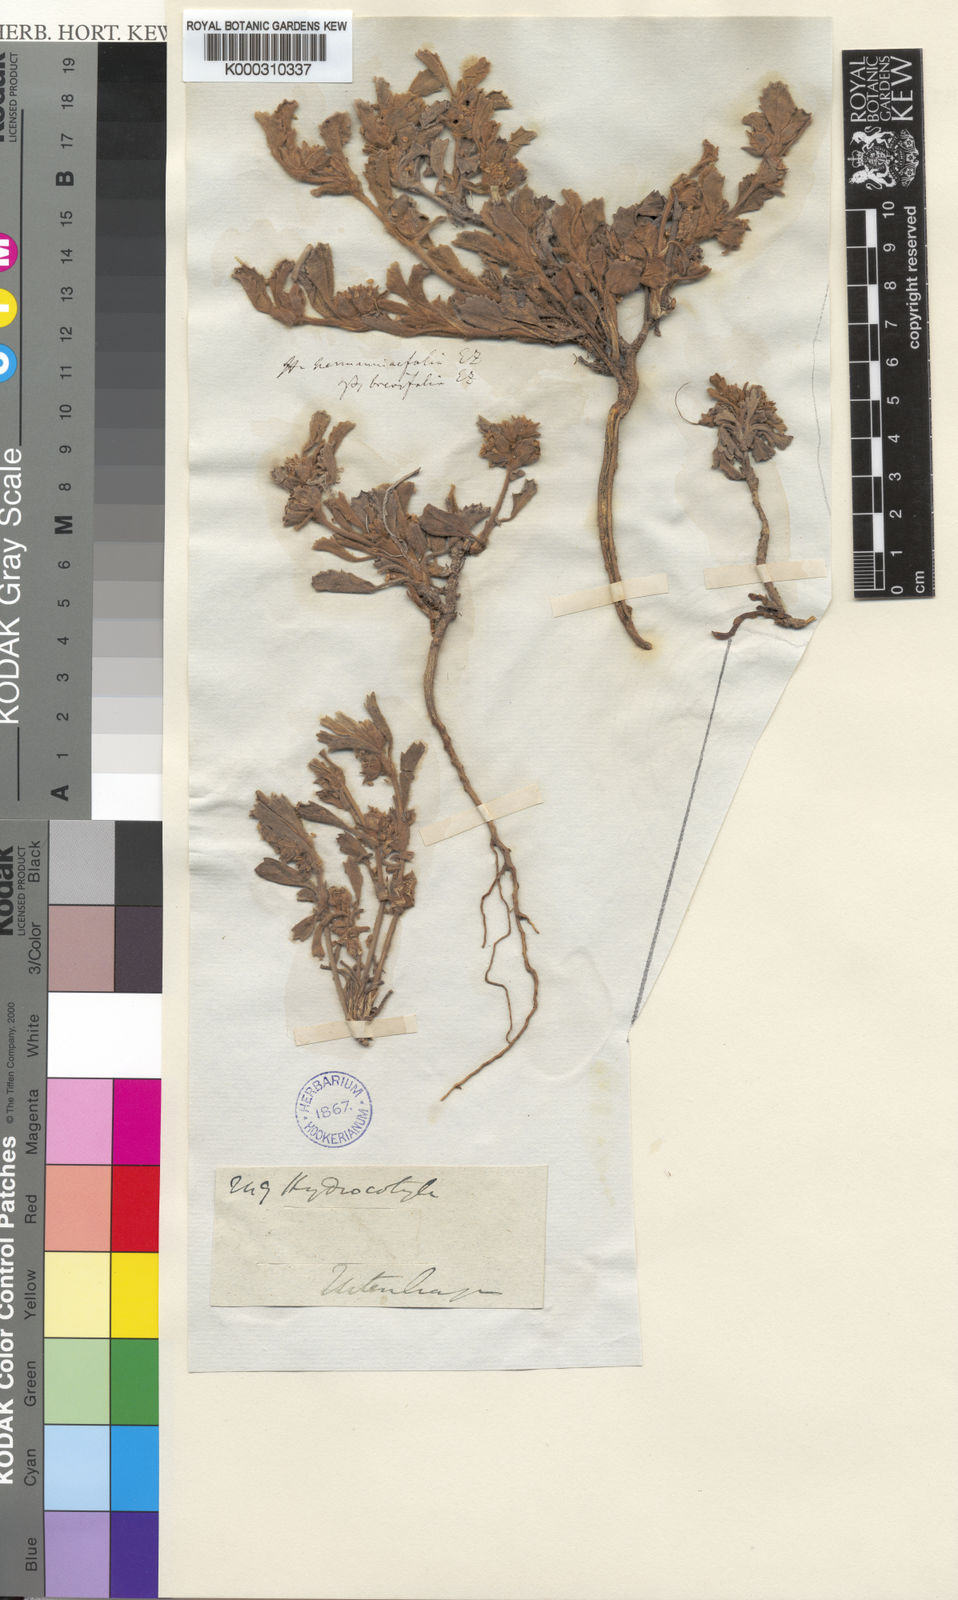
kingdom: Plantae
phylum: Tracheophyta
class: Magnoliopsida
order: Apiales
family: Apiaceae
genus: Centella
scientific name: Centella tridentata
